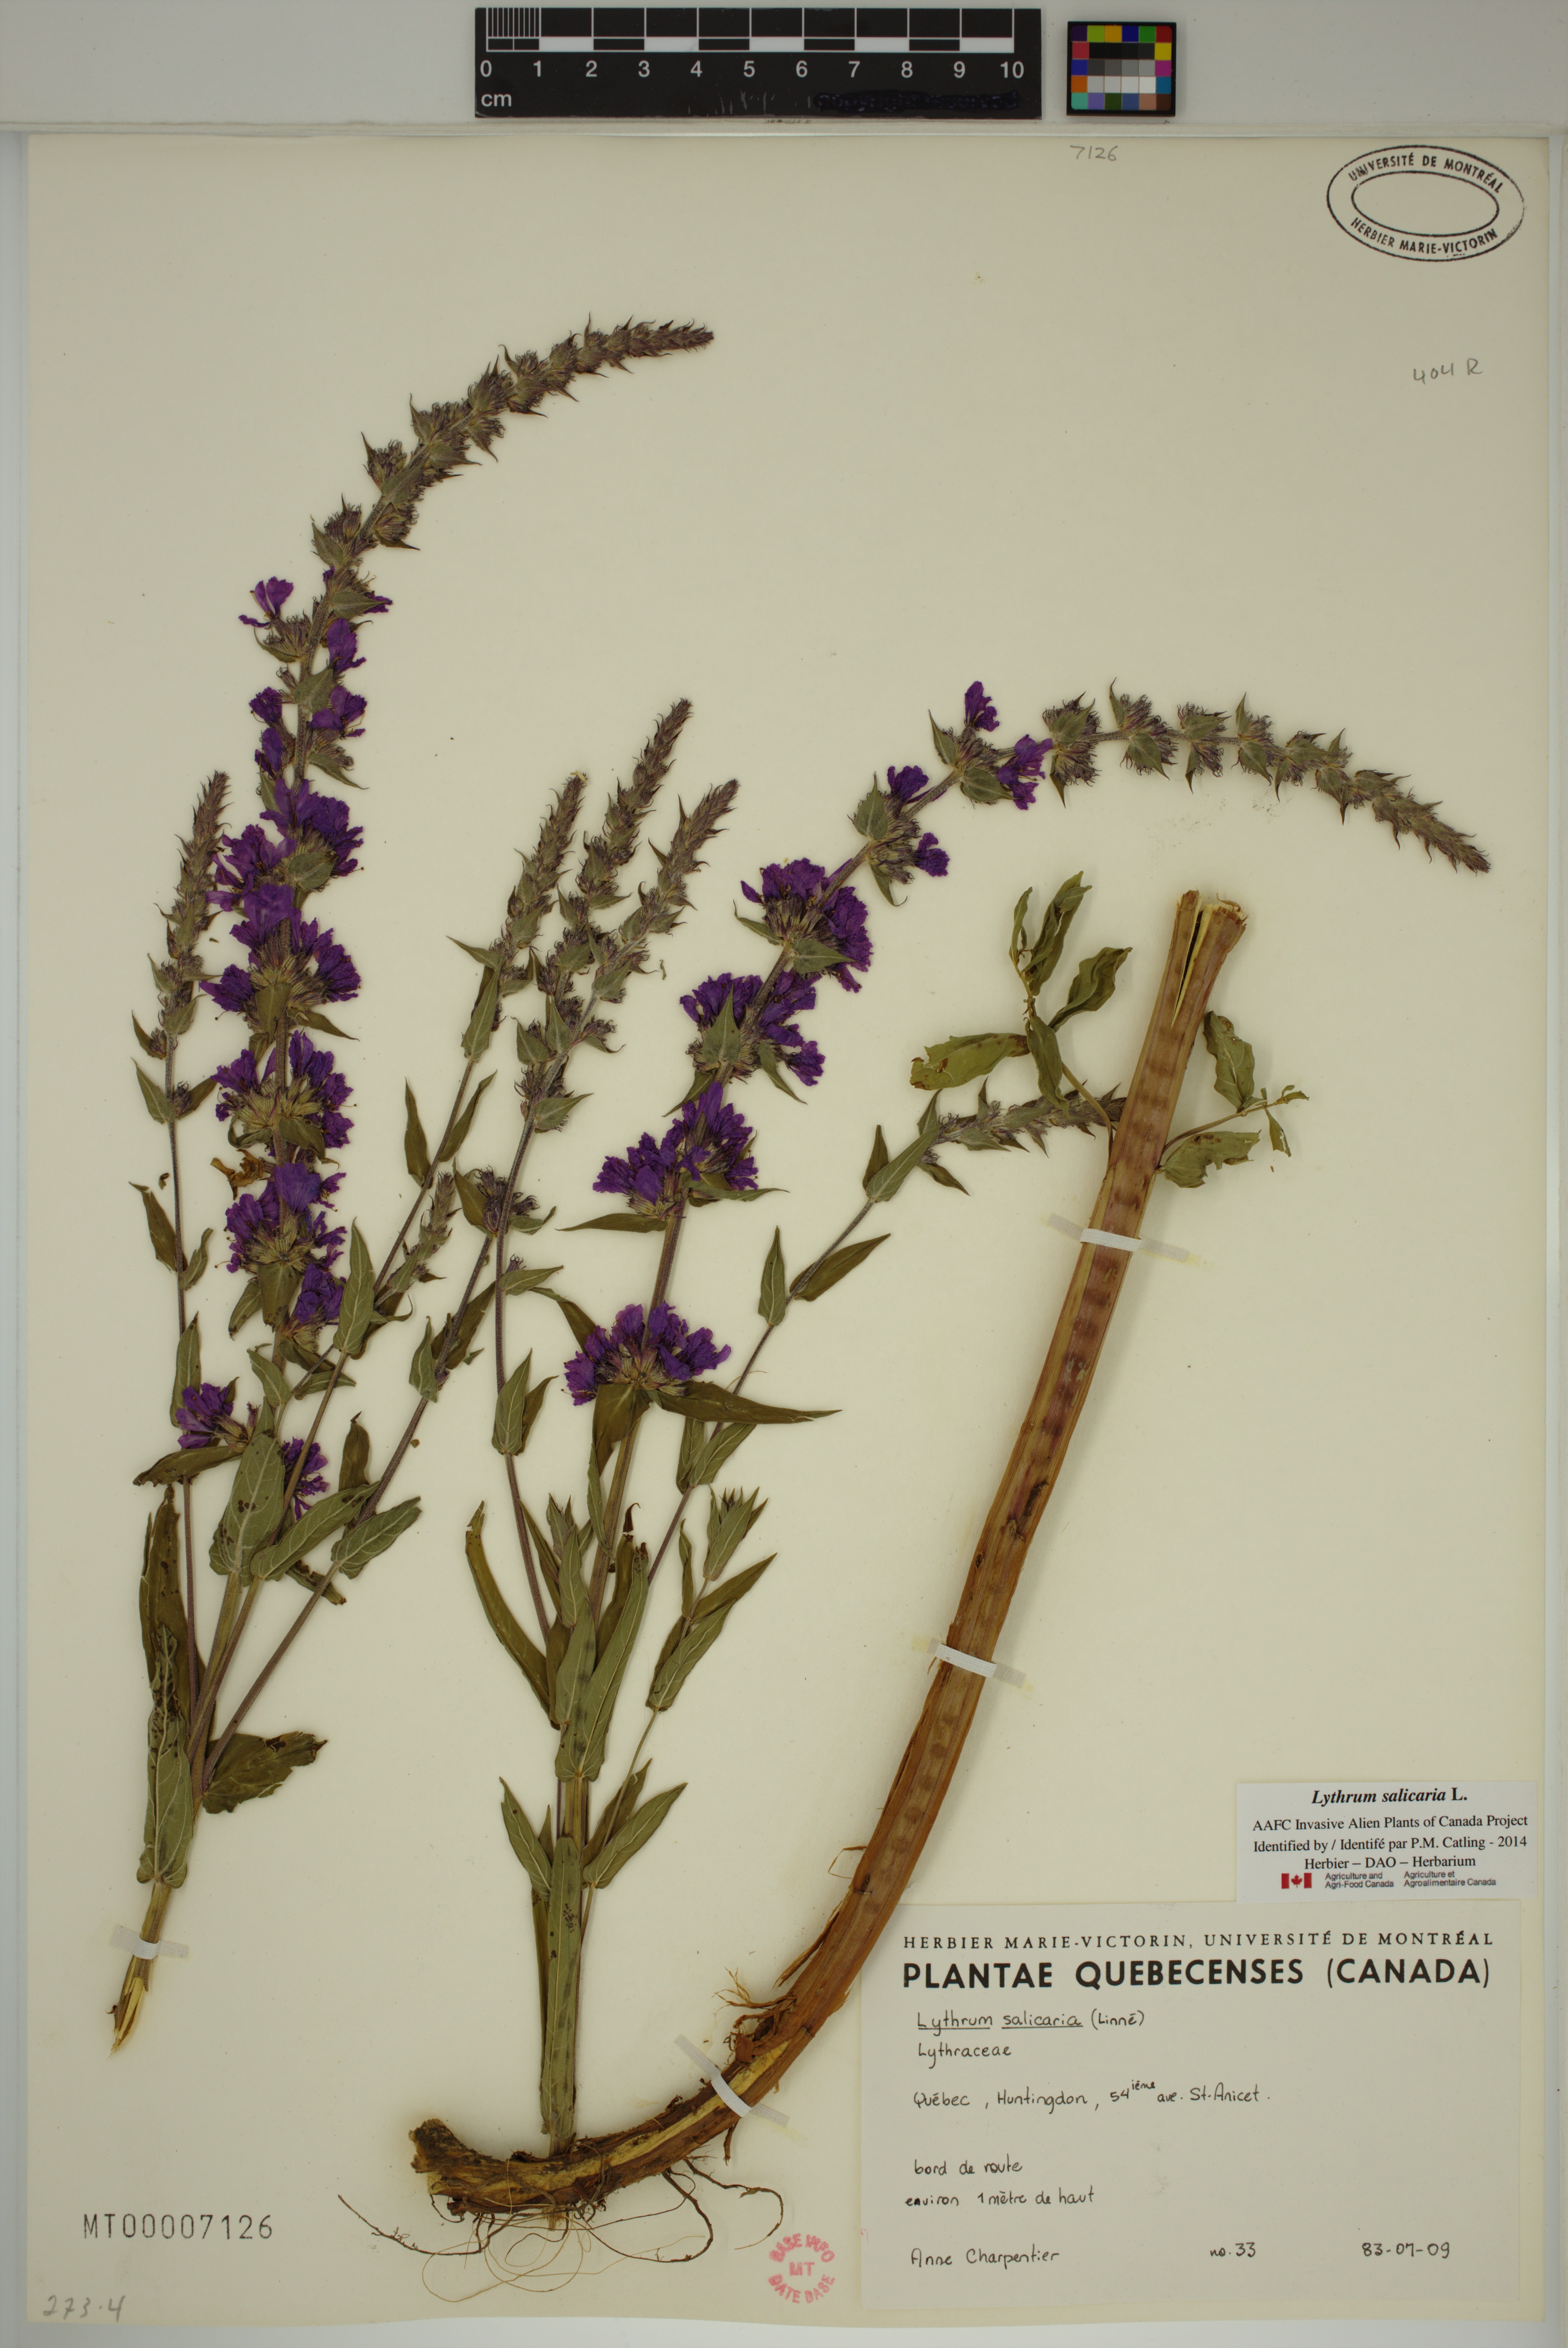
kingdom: Plantae
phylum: Tracheophyta
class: Magnoliopsida
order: Myrtales
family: Lythraceae
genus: Lythrum
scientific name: Lythrum salicaria
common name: Purple loosestrife
